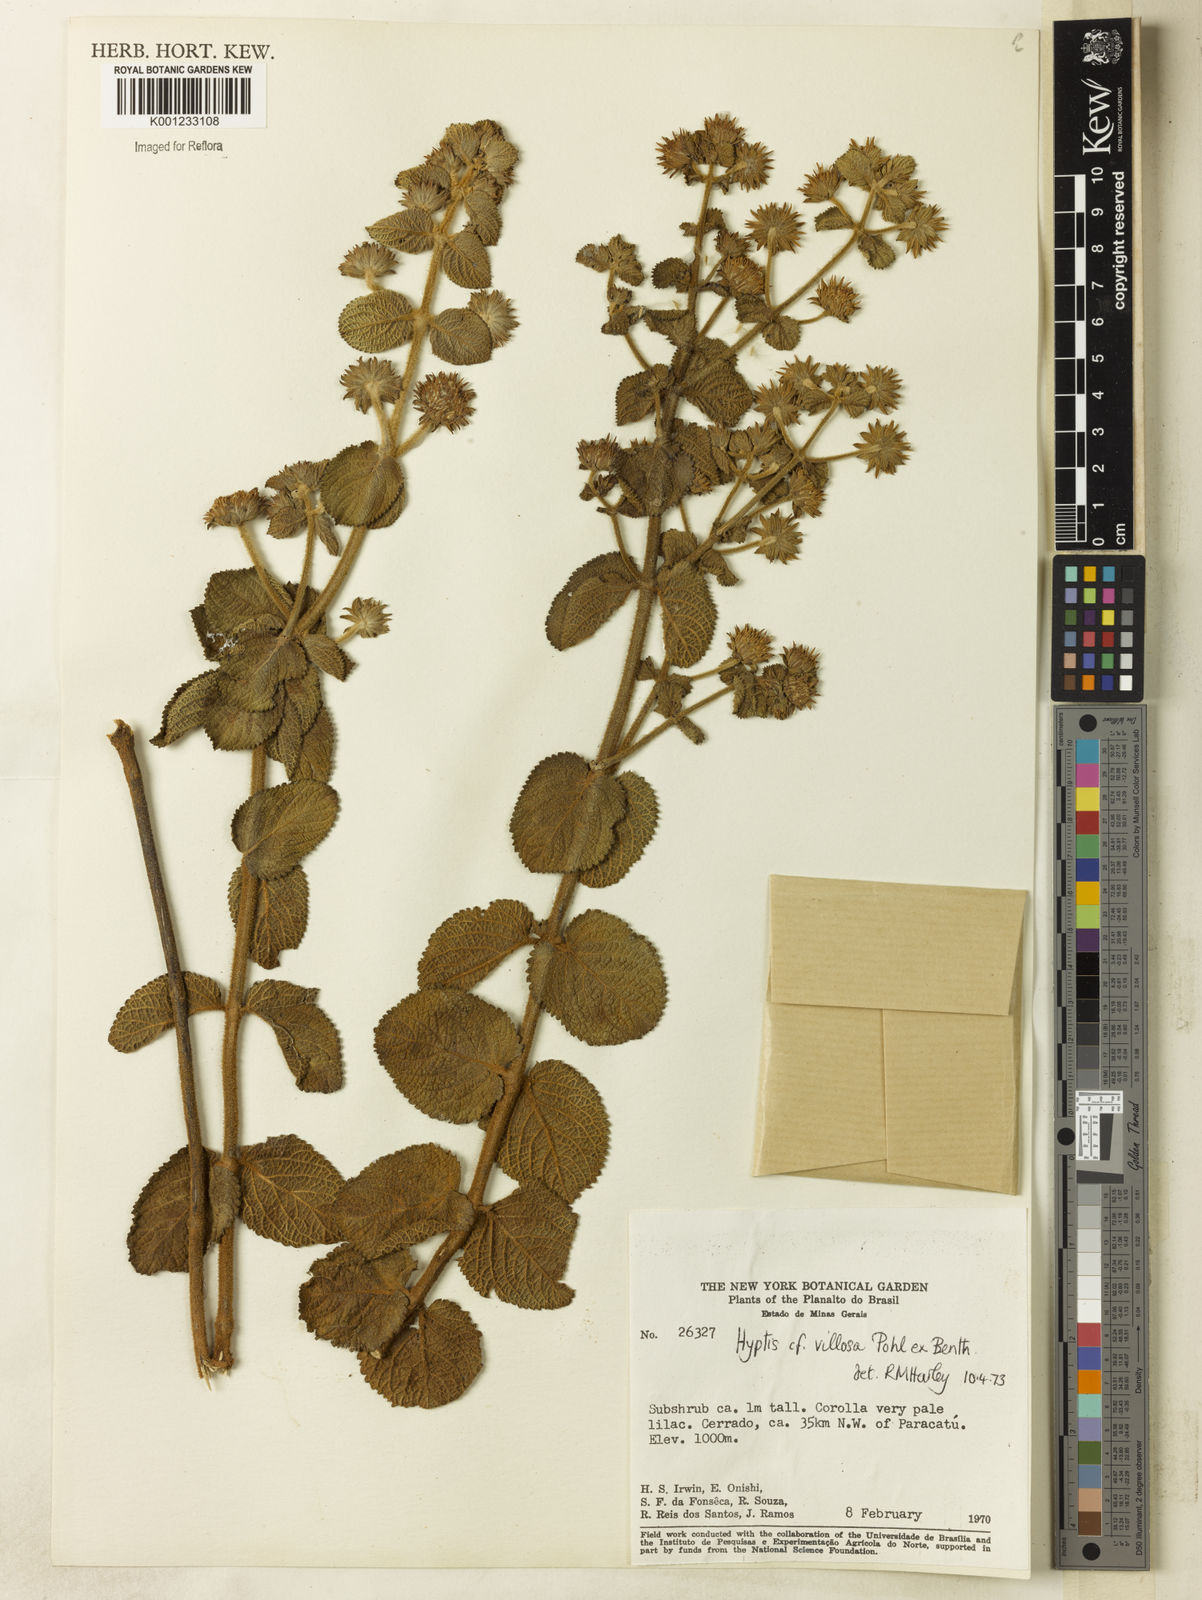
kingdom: Plantae
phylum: Tracheophyta
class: Magnoliopsida
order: Lamiales
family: Lamiaceae
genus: Hyptis
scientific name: Hyptis villosa
